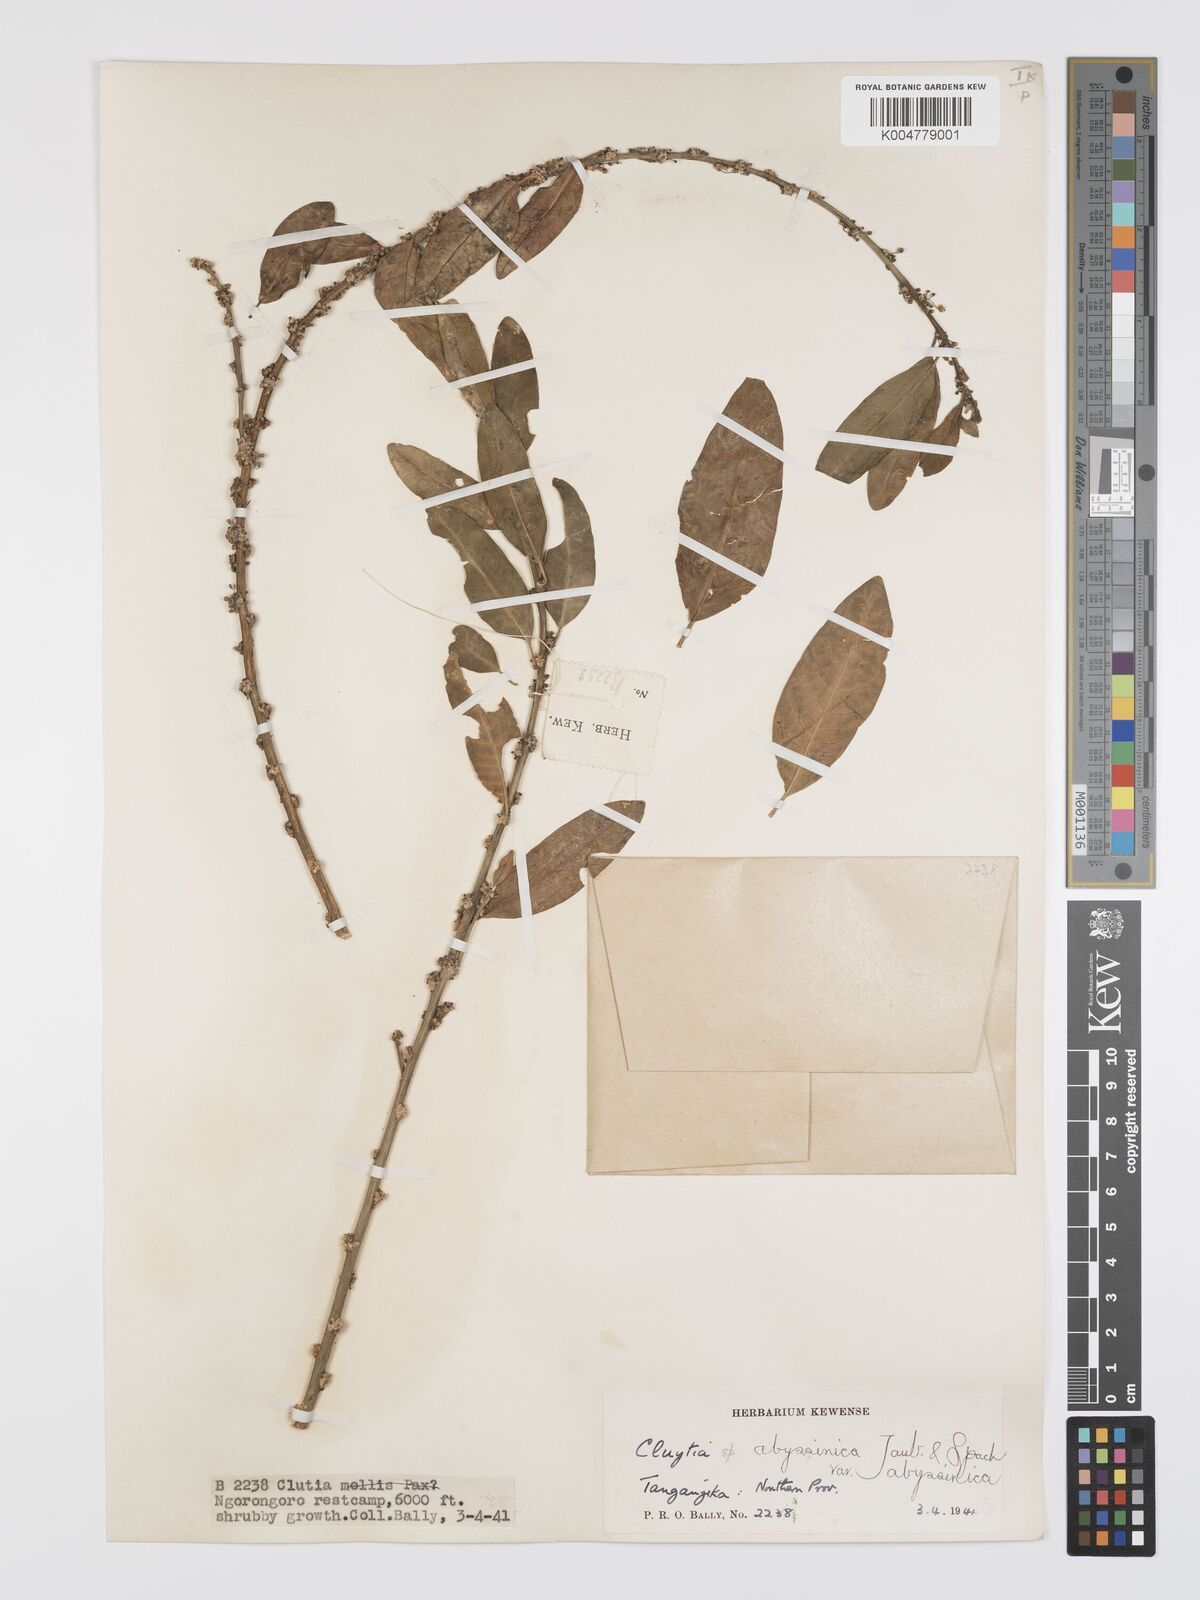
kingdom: Plantae
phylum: Tracheophyta
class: Magnoliopsida
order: Malpighiales
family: Peraceae
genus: Clutia
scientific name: Clutia abyssinica
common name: Large lightning bush
